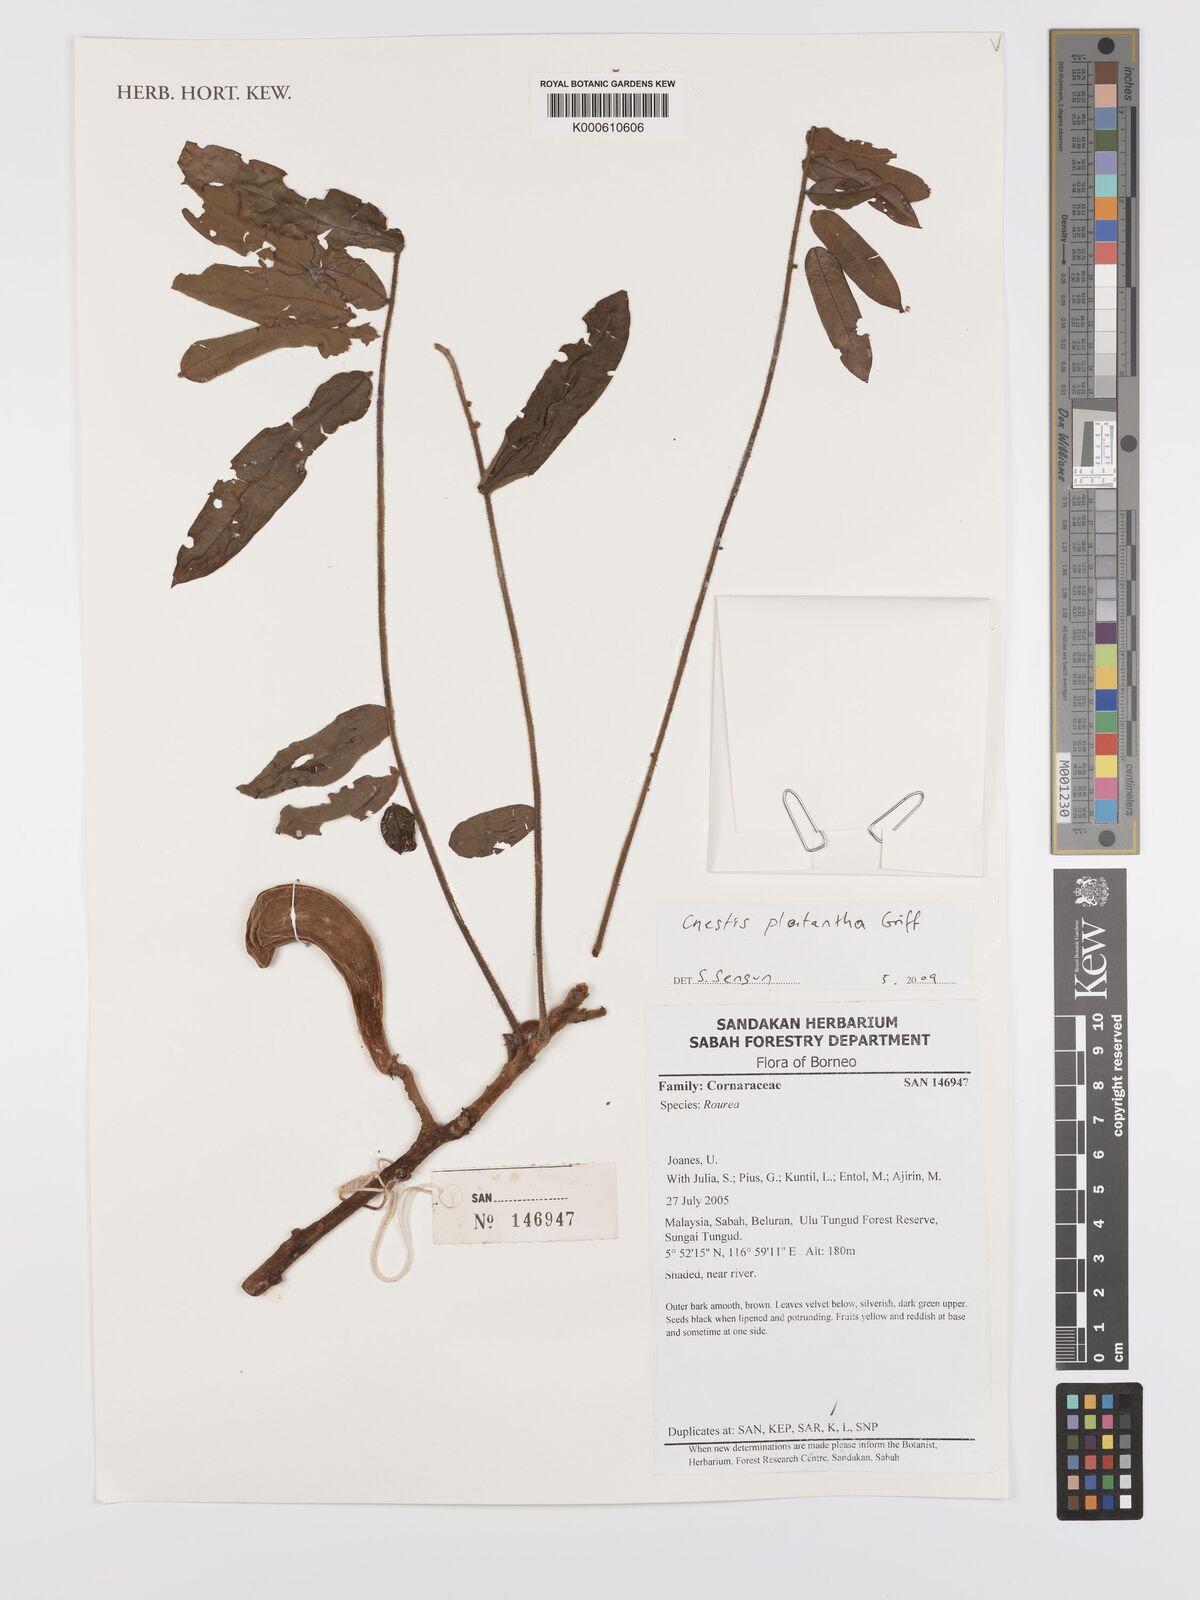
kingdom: Plantae
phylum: Tracheophyta
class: Magnoliopsida
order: Oxalidales
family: Connaraceae
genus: Cnestis
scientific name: Cnestis platantha
